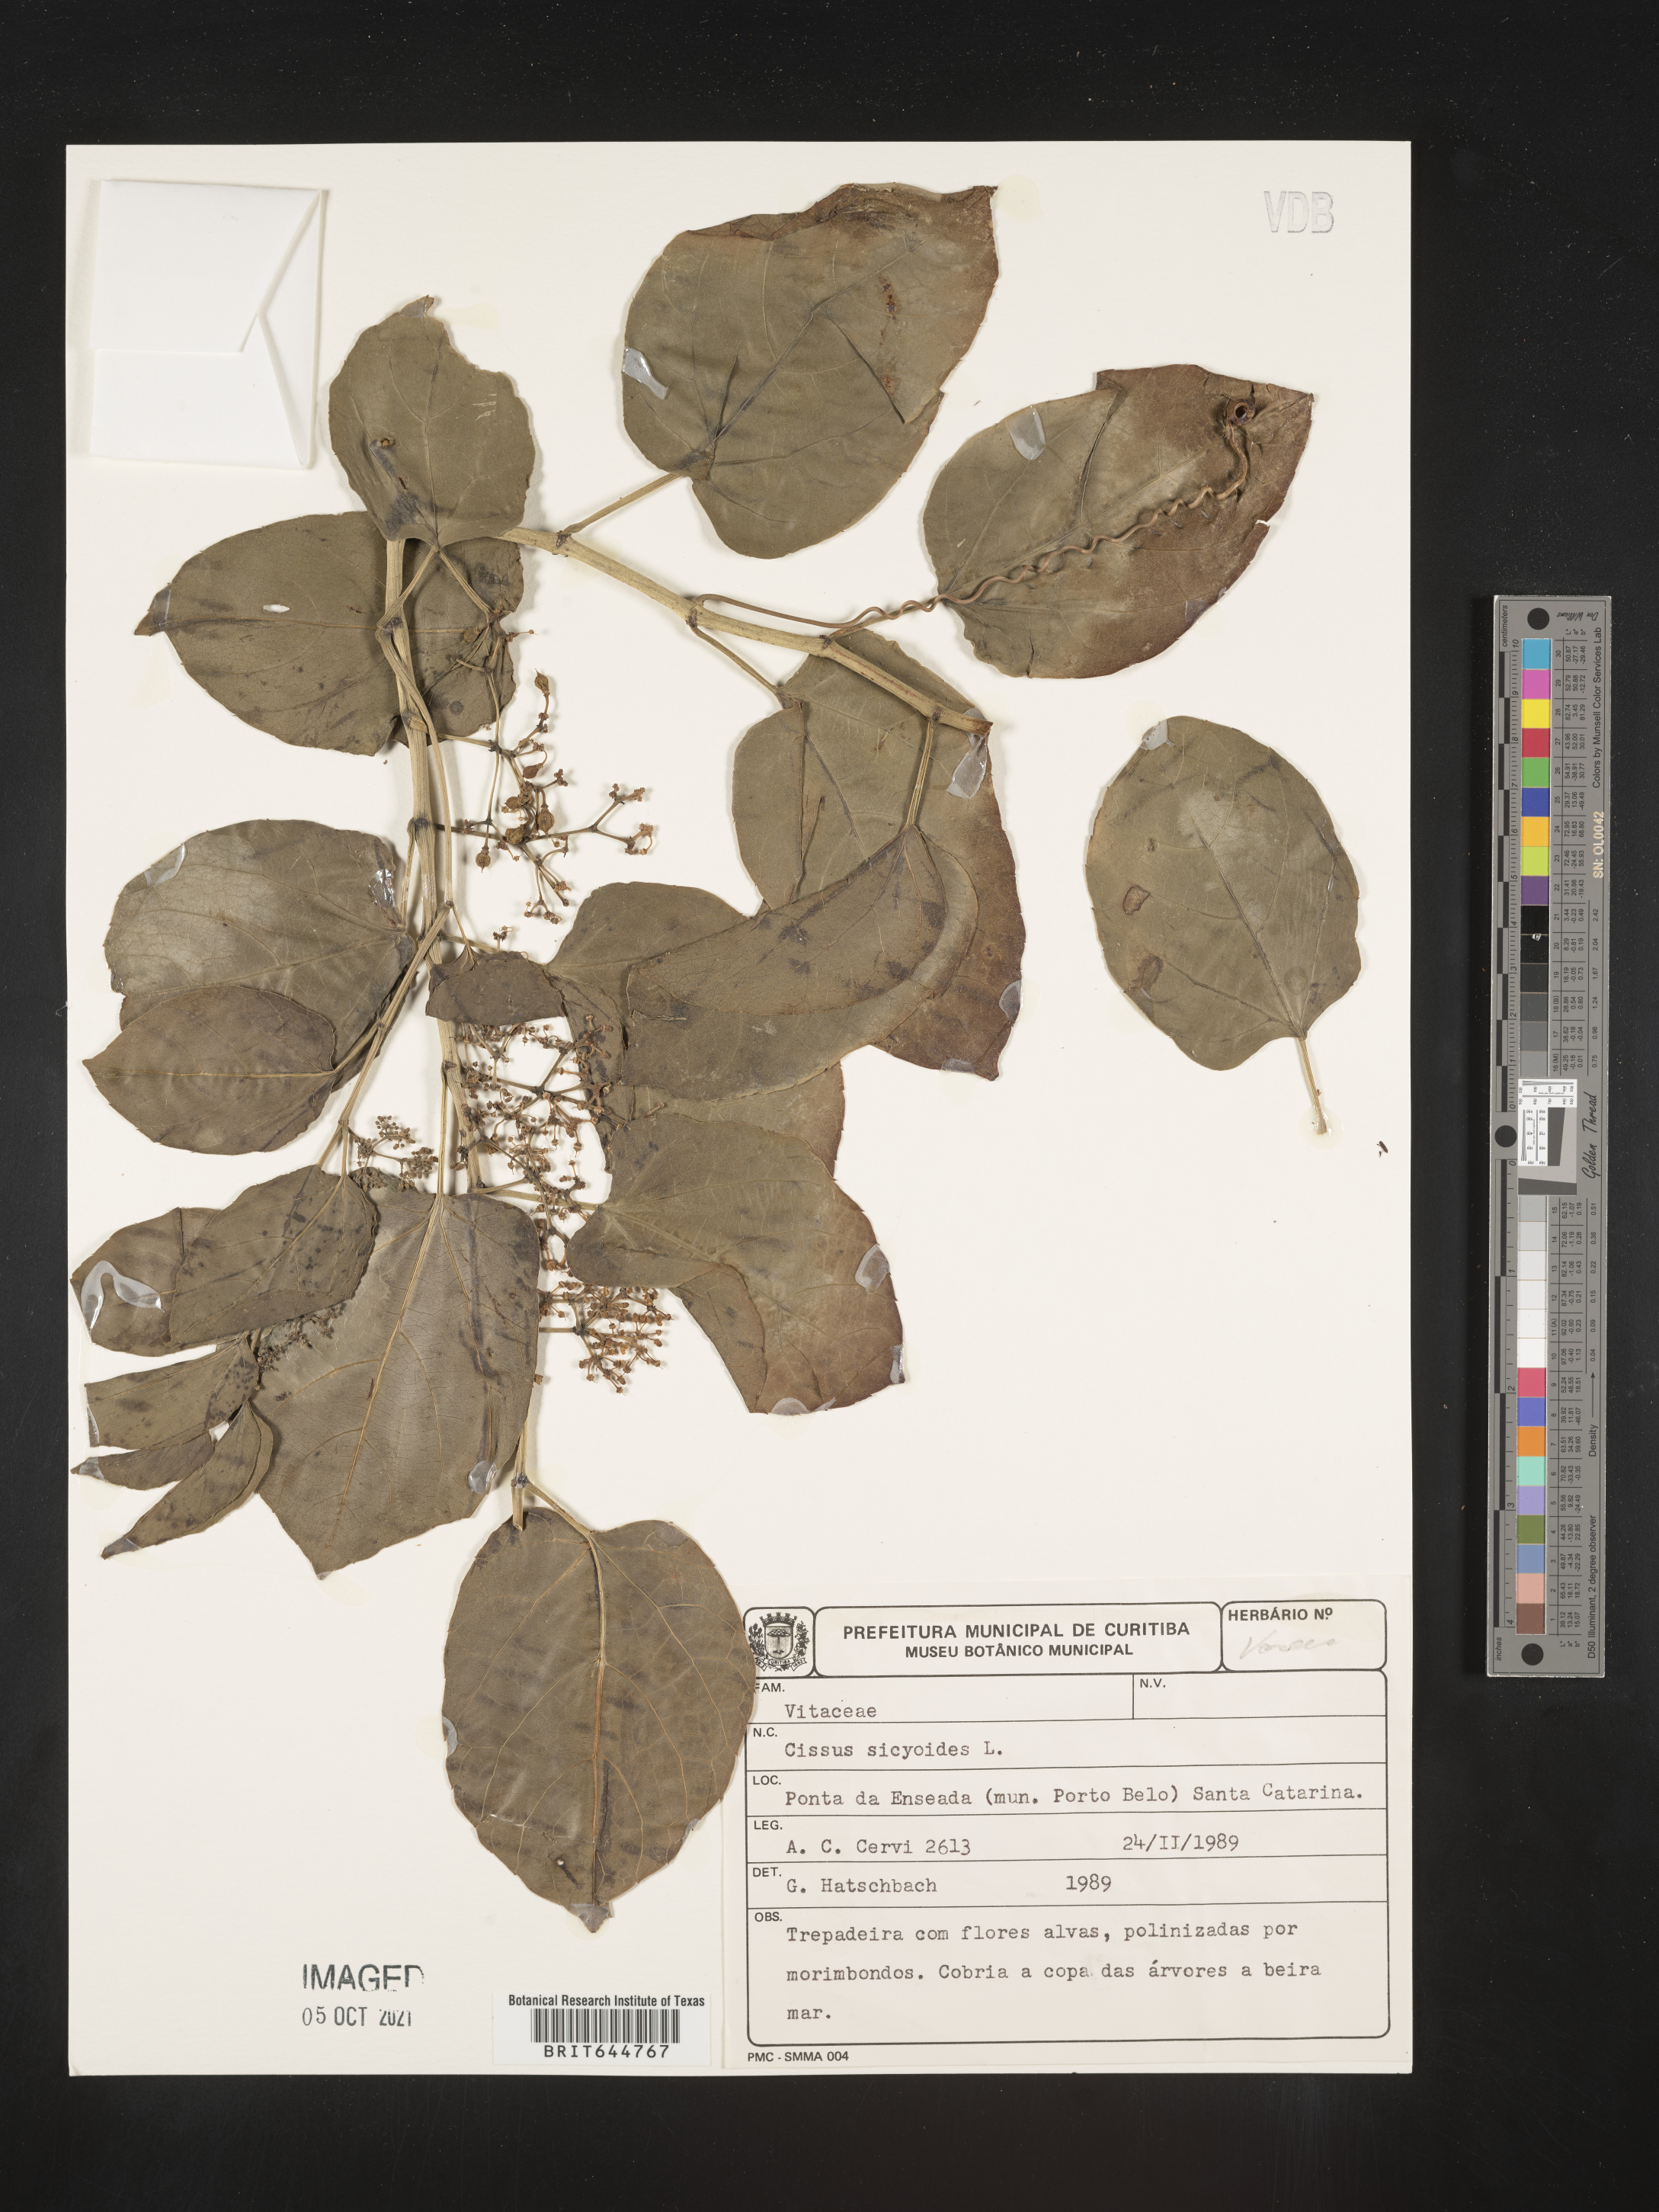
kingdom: Plantae
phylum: Tracheophyta
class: Magnoliopsida
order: Vitales
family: Vitaceae
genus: Cissus
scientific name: Cissus
